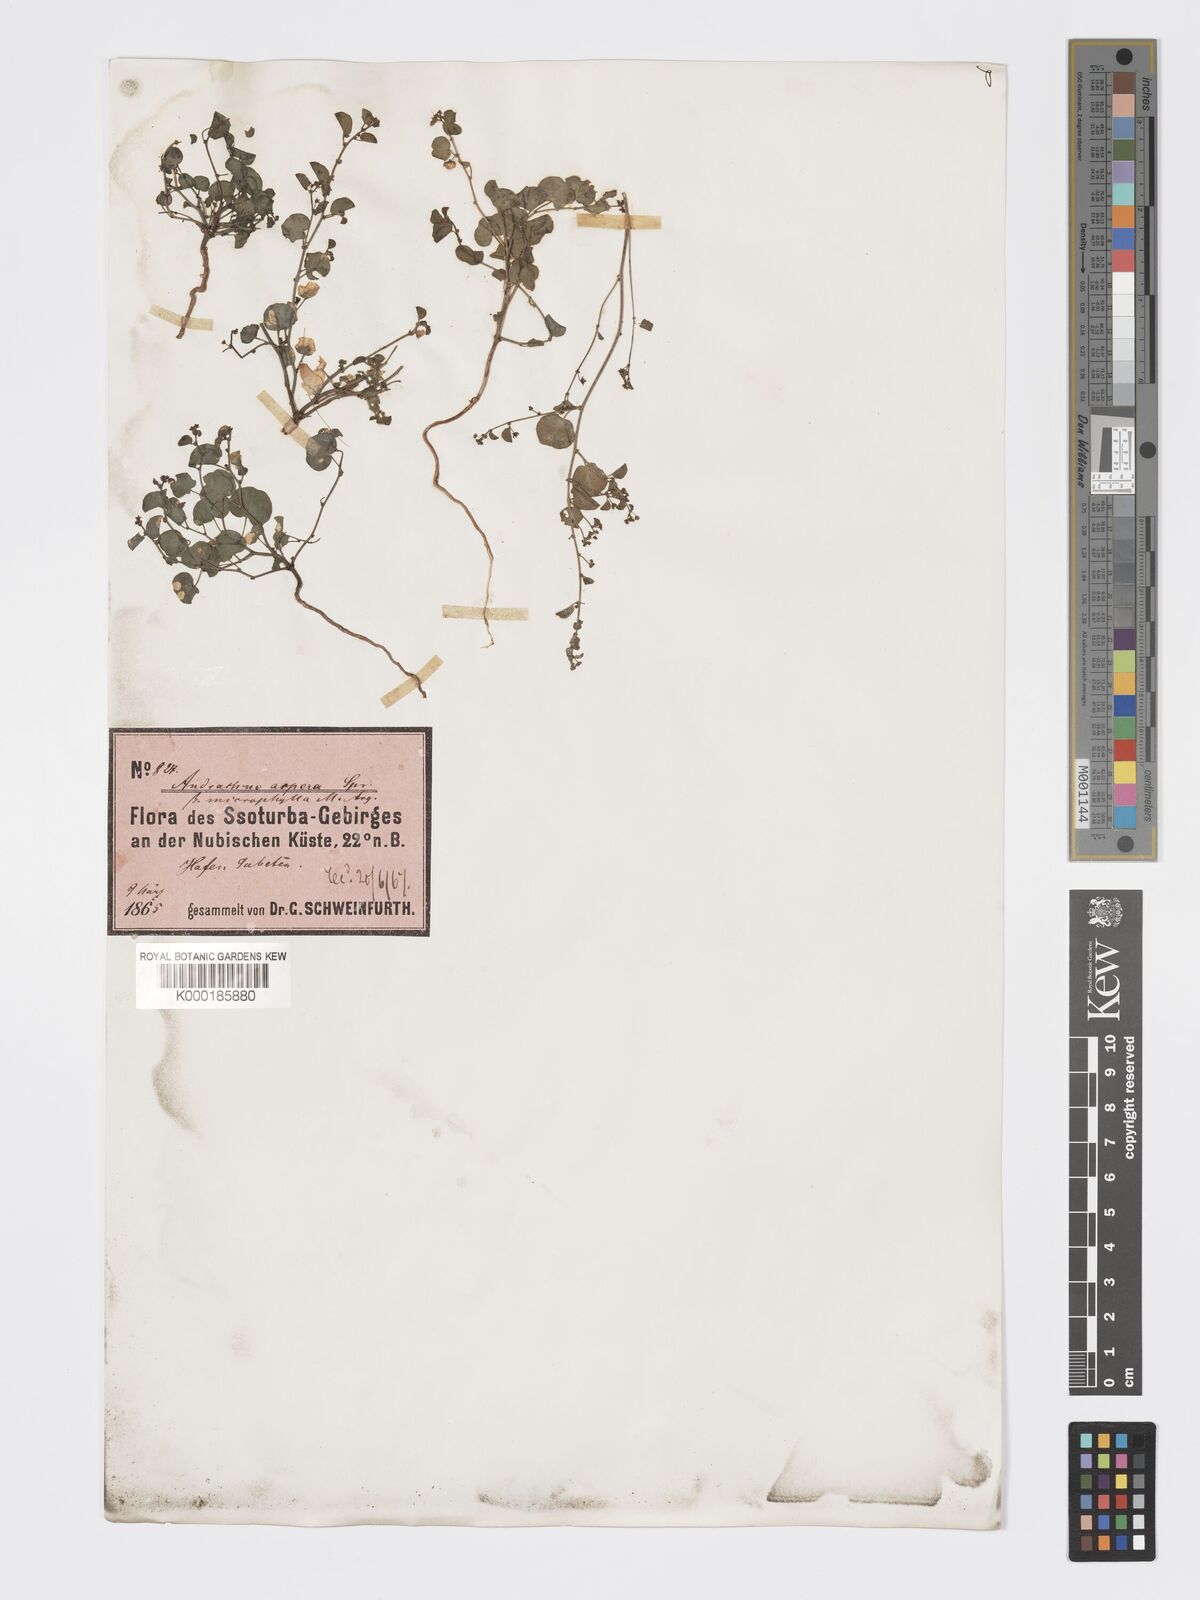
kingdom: Plantae
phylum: Tracheophyta
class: Magnoliopsida
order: Malpighiales
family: Phyllanthaceae
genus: Andrachne
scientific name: Andrachne aspera
